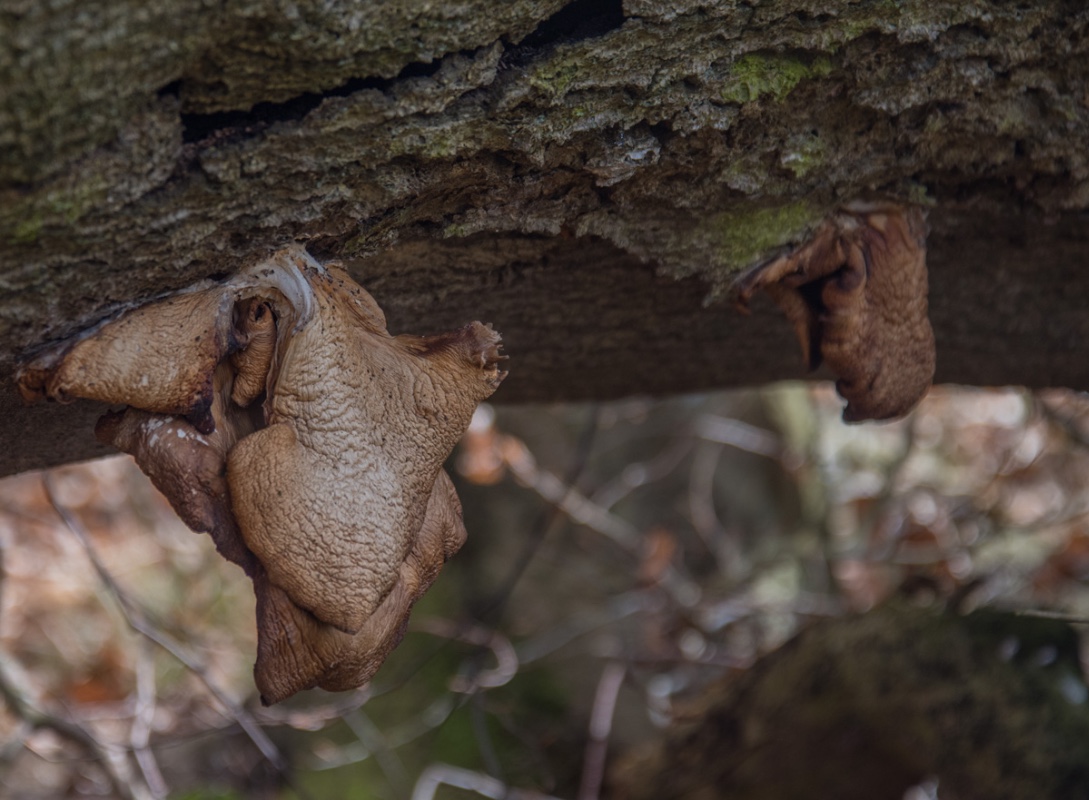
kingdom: Fungi
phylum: Basidiomycota
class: Agaricomycetes
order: Agaricales
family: Pleurotaceae
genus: Pleurotus
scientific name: Pleurotus ostreatus
